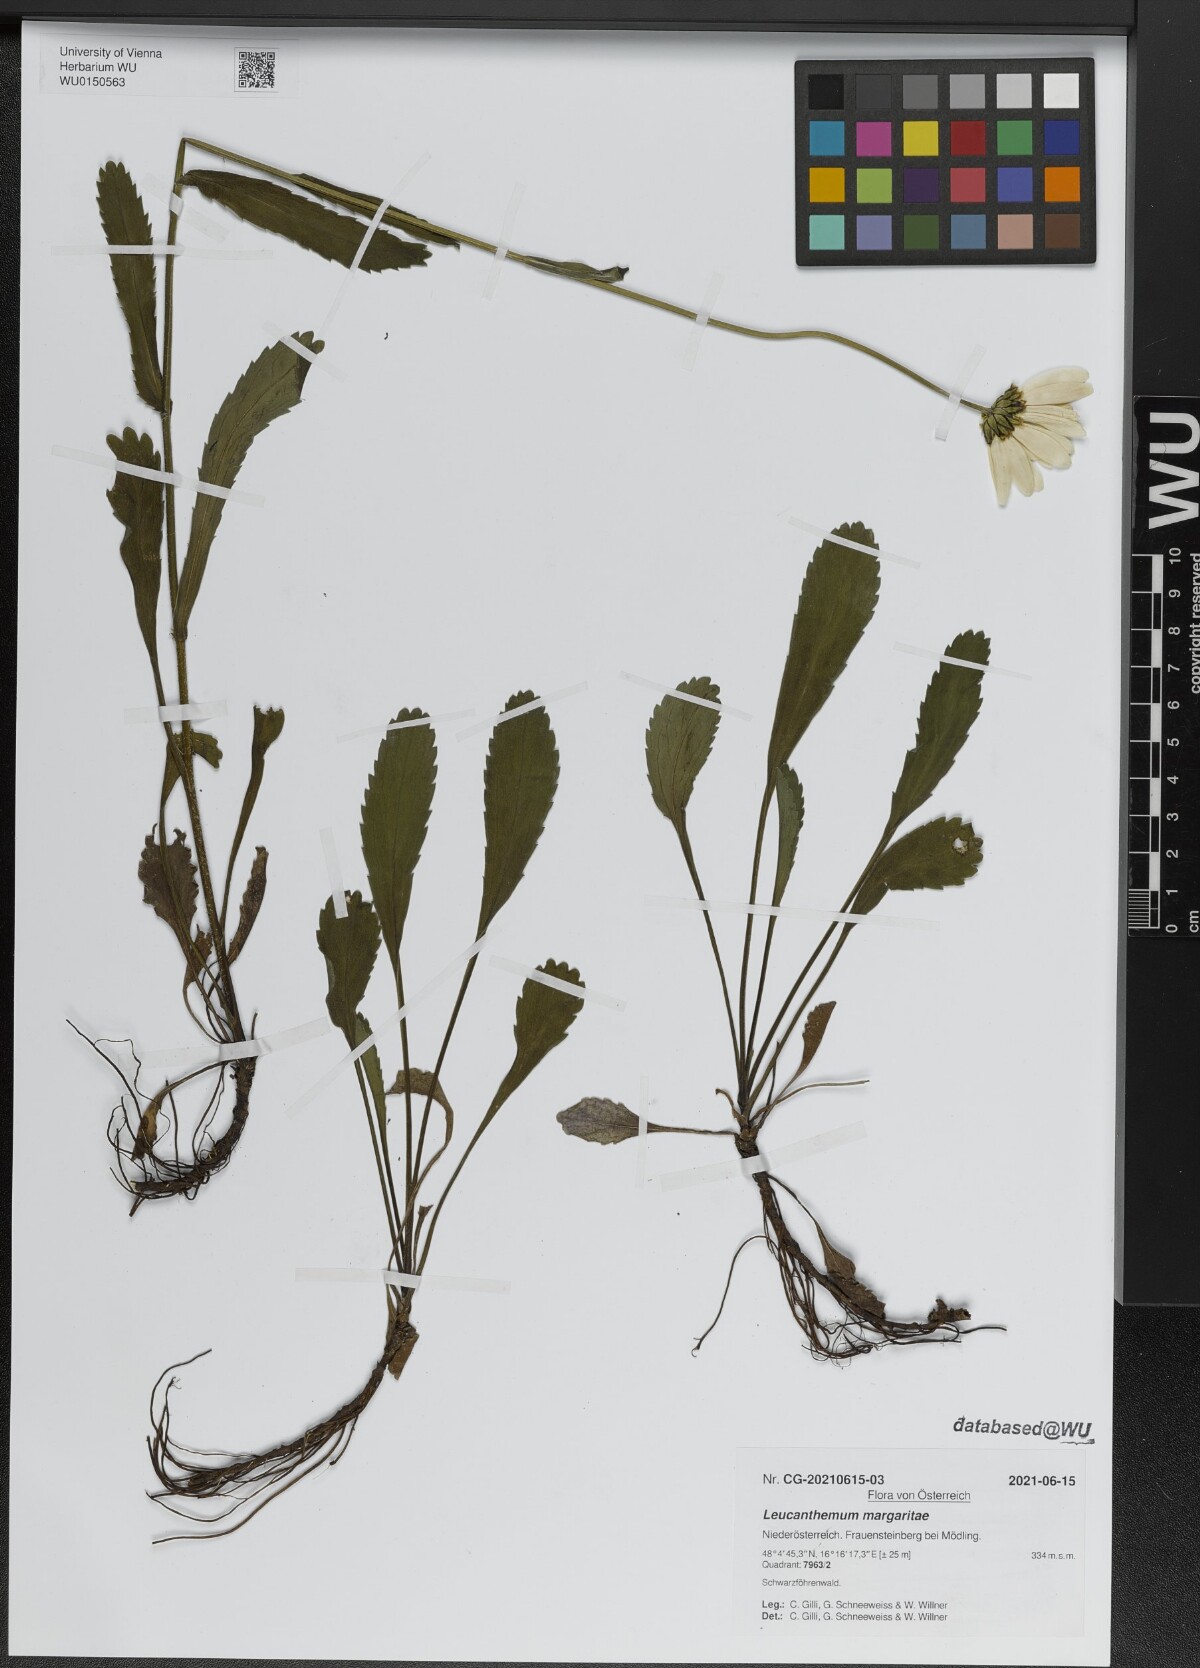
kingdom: Plantae
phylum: Tracheophyta
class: Magnoliopsida
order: Asterales
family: Asteraceae
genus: Leucanthemum
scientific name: Leucanthemum adustum
